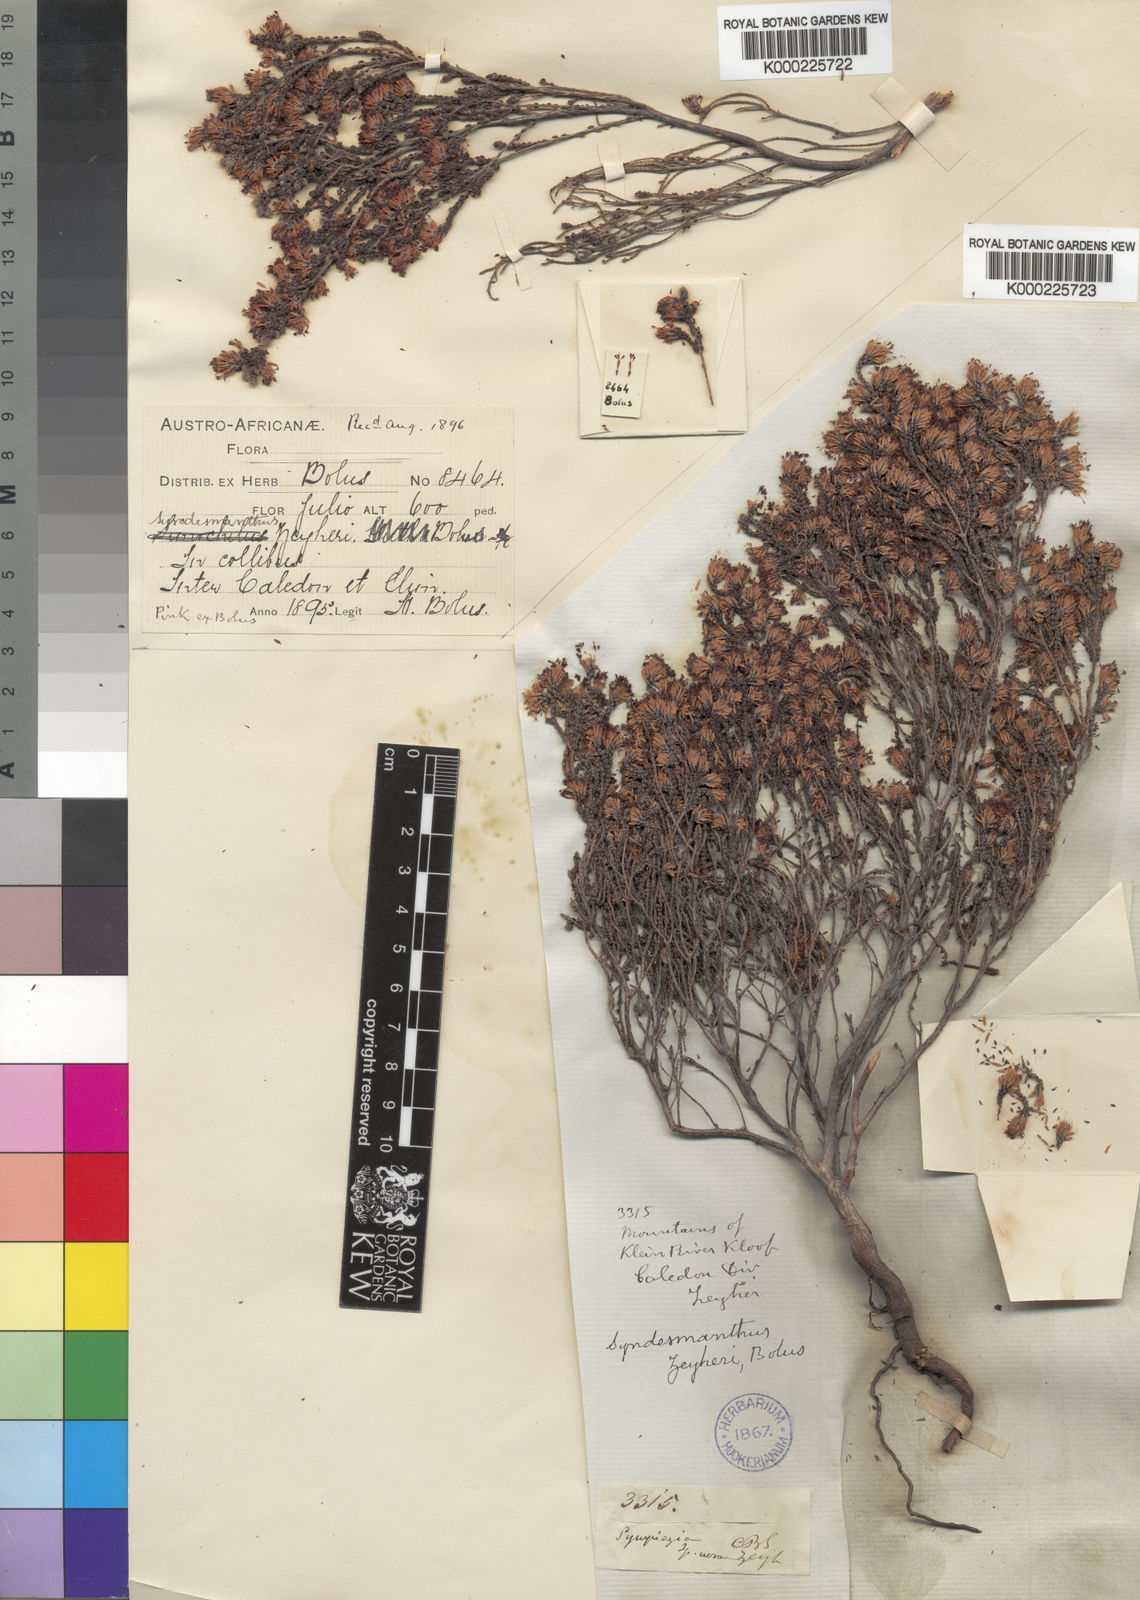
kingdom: Plantae
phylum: Tracheophyta
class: Magnoliopsida
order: Ericales
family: Ericaceae
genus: Erica
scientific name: Erica globiceps
